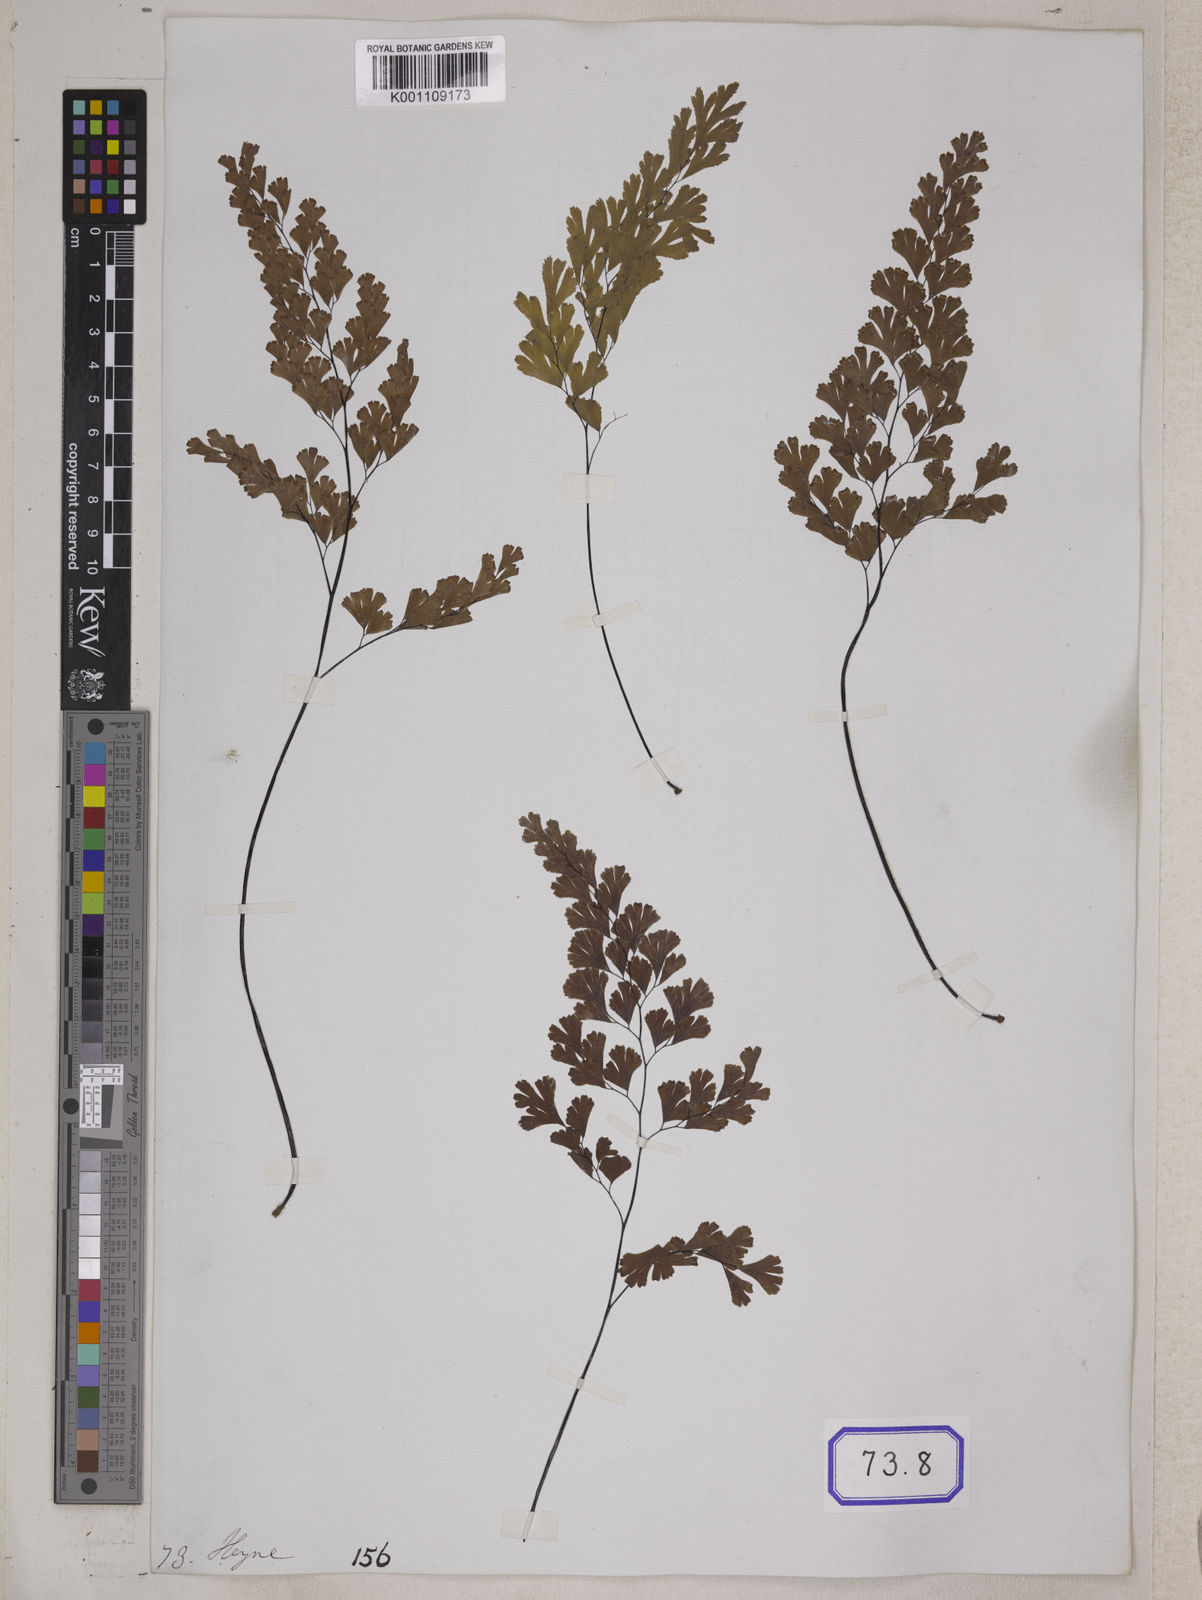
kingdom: Plantae
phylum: Tracheophyta
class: Polypodiopsida
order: Polypodiales
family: Pteridaceae
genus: Adiantum
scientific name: Adiantum
